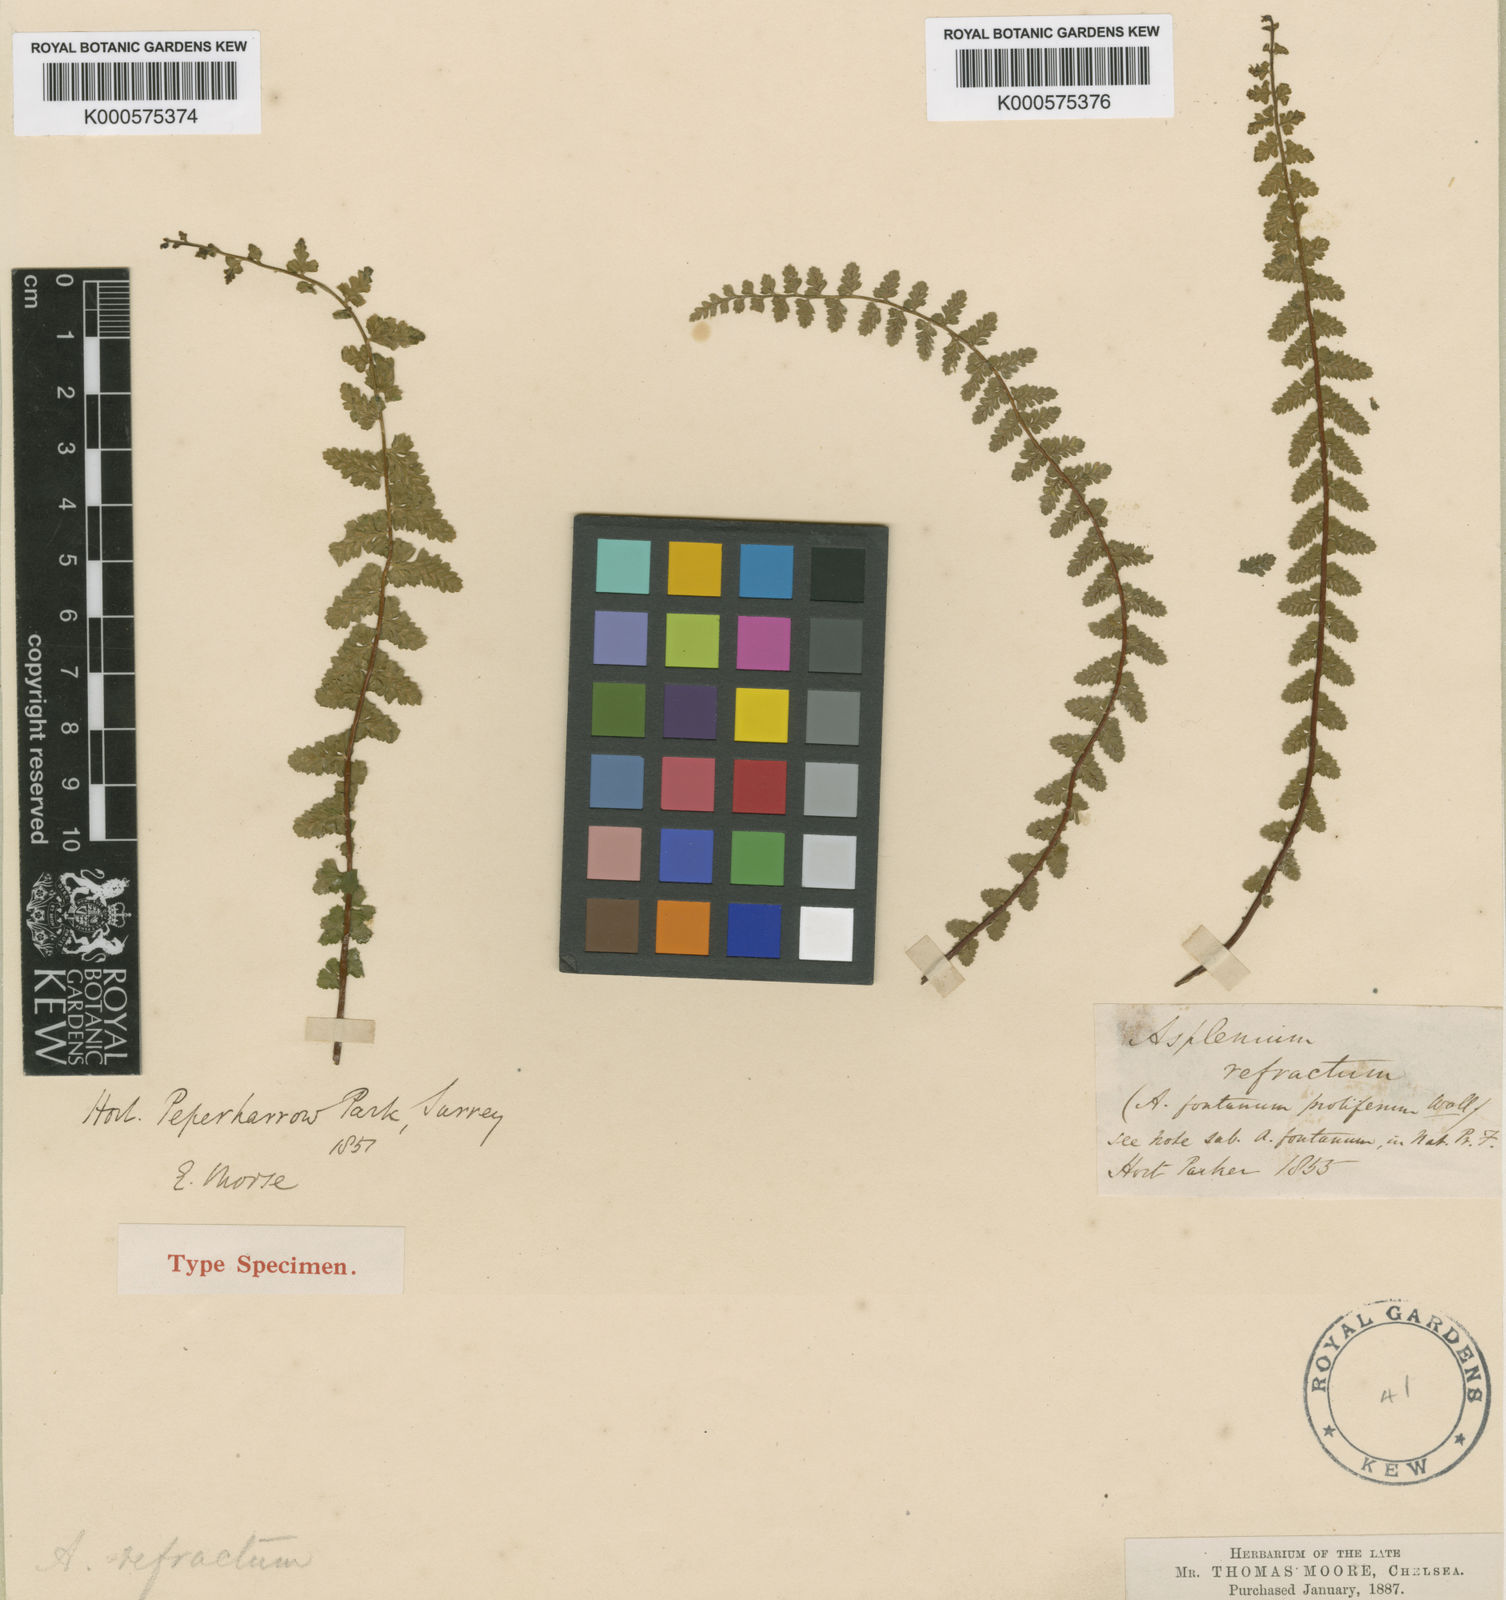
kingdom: Plantae
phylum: Tracheophyta
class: Polypodiopsida
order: Polypodiales
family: Aspleniaceae
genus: Asplenium
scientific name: Asplenium fontanum
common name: Fountain spleenwort
